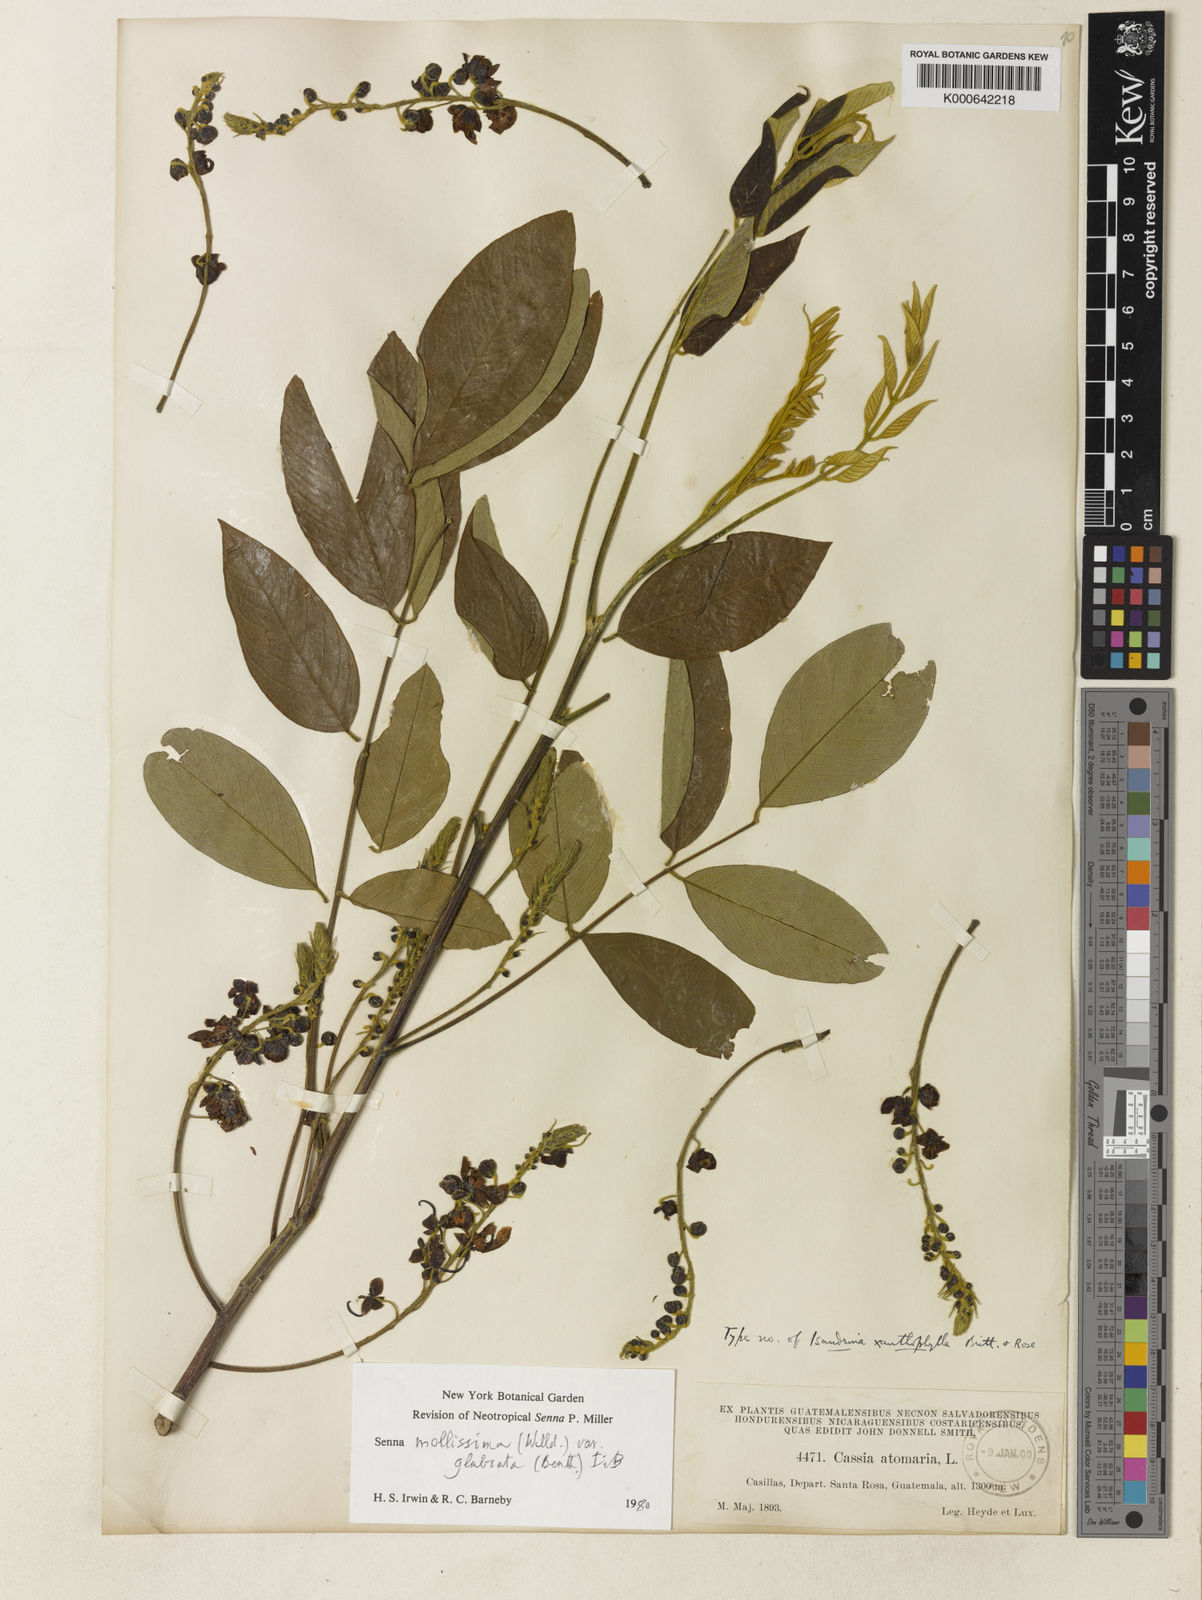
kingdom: Plantae
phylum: Tracheophyta
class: Magnoliopsida
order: Fabales
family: Fabaceae
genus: Senna
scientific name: Senna mollissima
